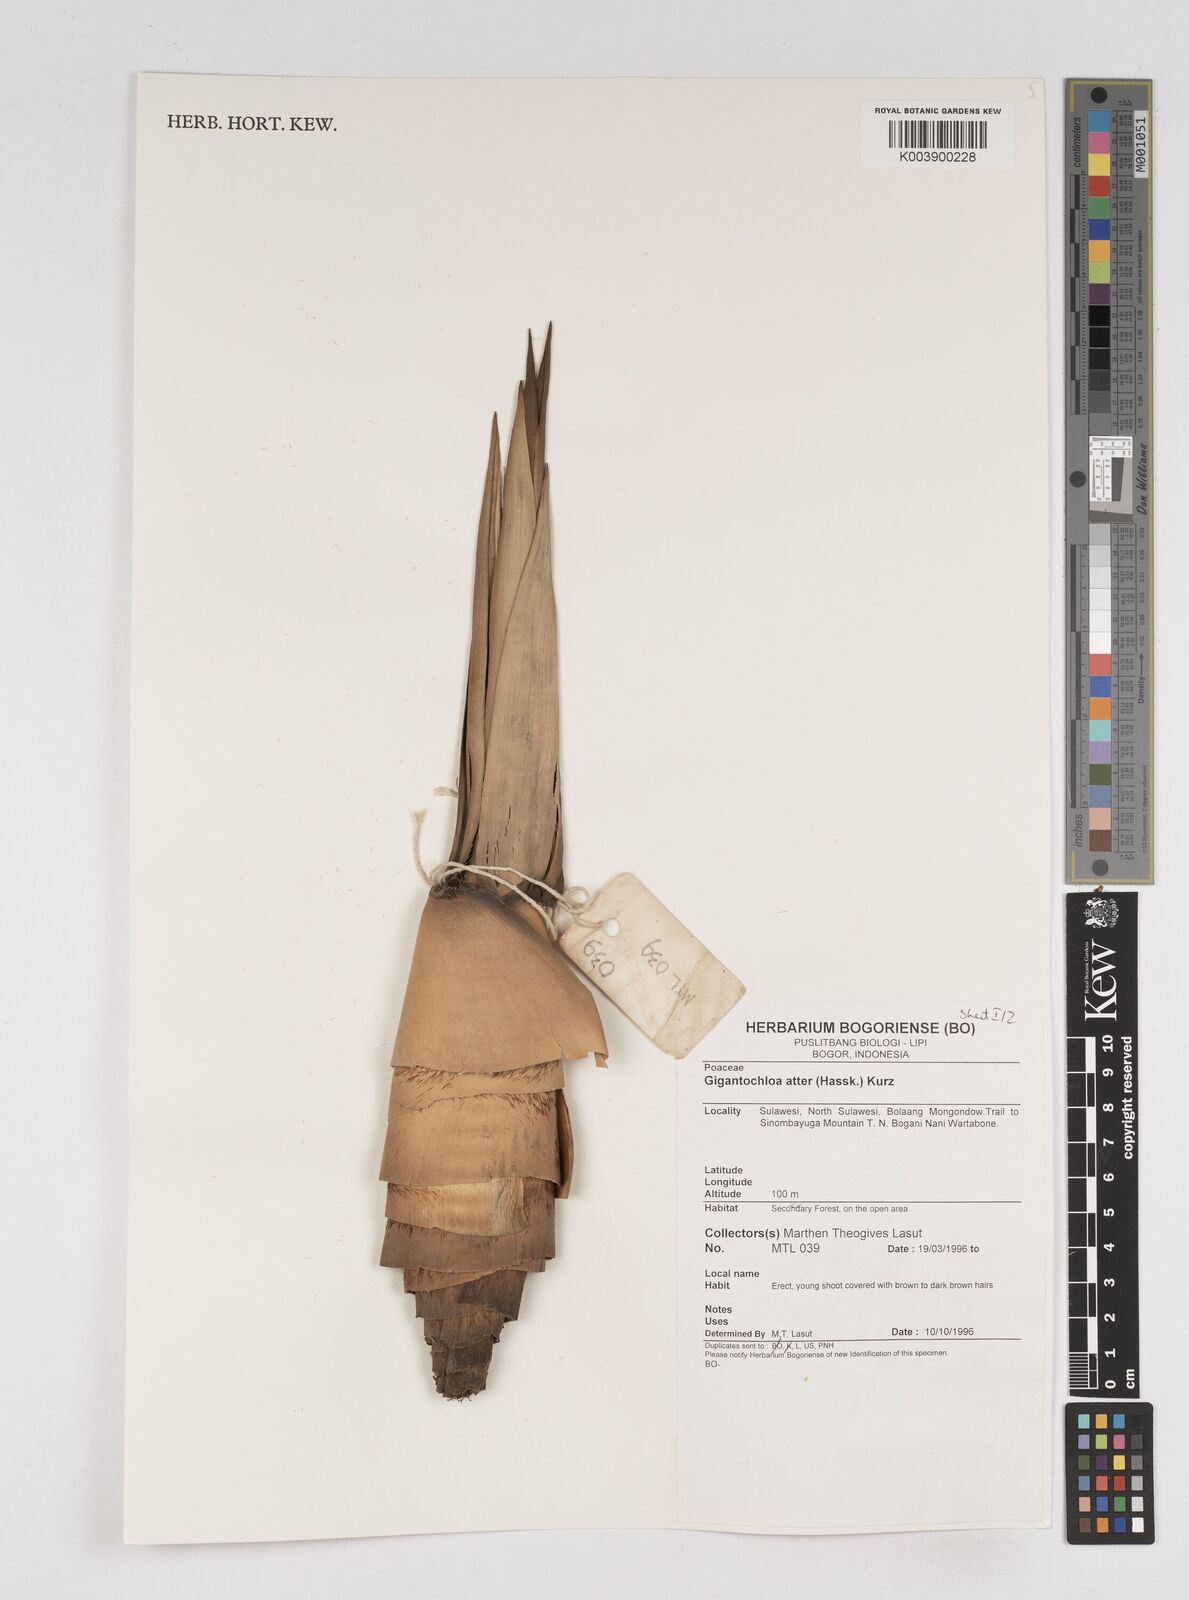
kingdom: Plantae
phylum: Tracheophyta
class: Liliopsida
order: Poales
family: Poaceae
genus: Gigantochloa
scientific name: Gigantochloa atter
